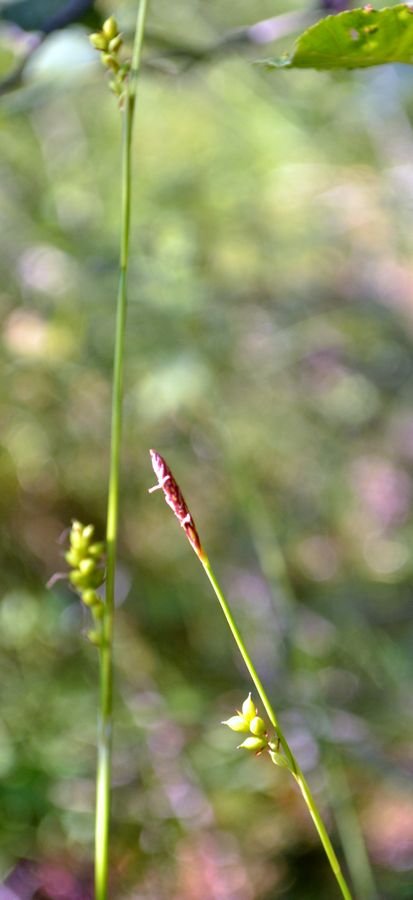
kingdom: Plantae
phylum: Tracheophyta
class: Liliopsida
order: Poales
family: Cyperaceae
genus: Carex
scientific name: Carex globularis
